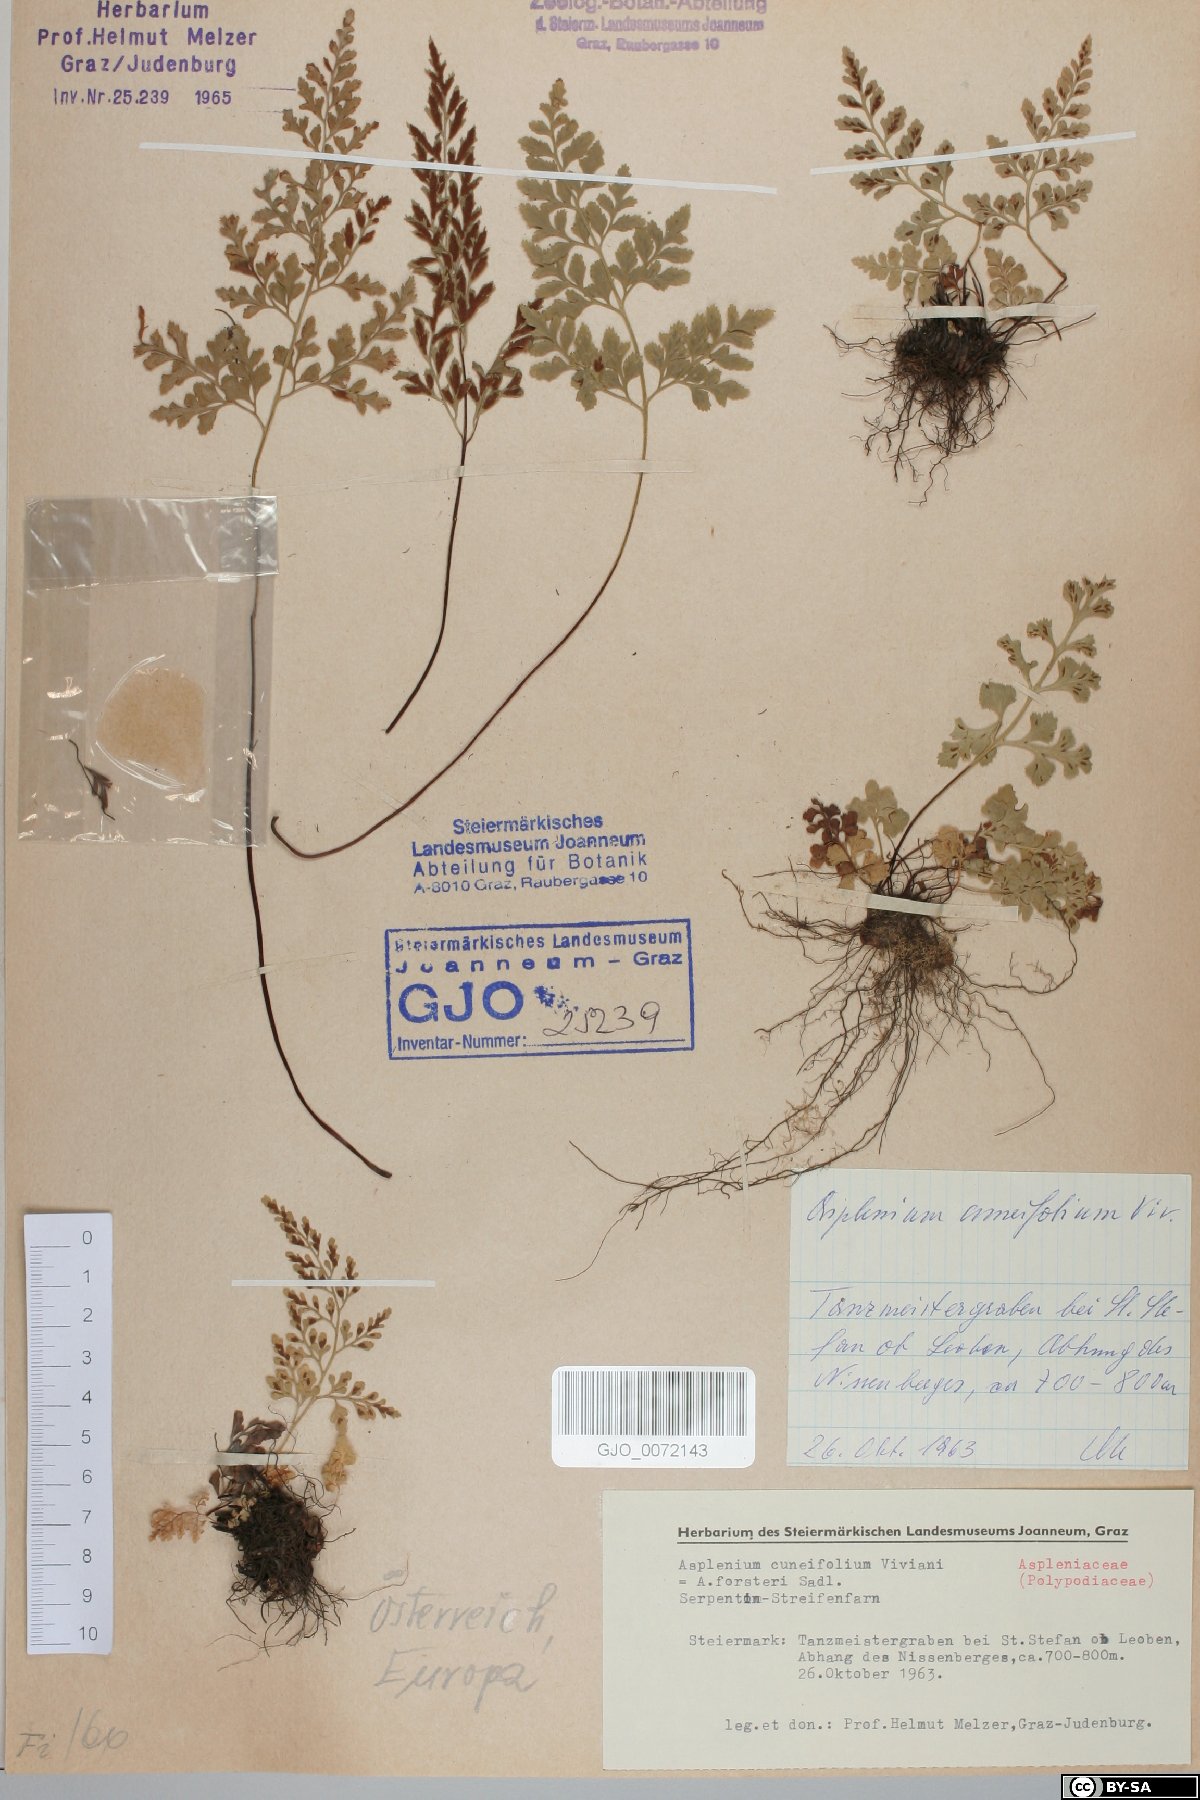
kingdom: Plantae
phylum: Tracheophyta
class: Polypodiopsida
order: Polypodiales
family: Aspleniaceae
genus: Asplenium
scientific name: Asplenium cuneifolium
